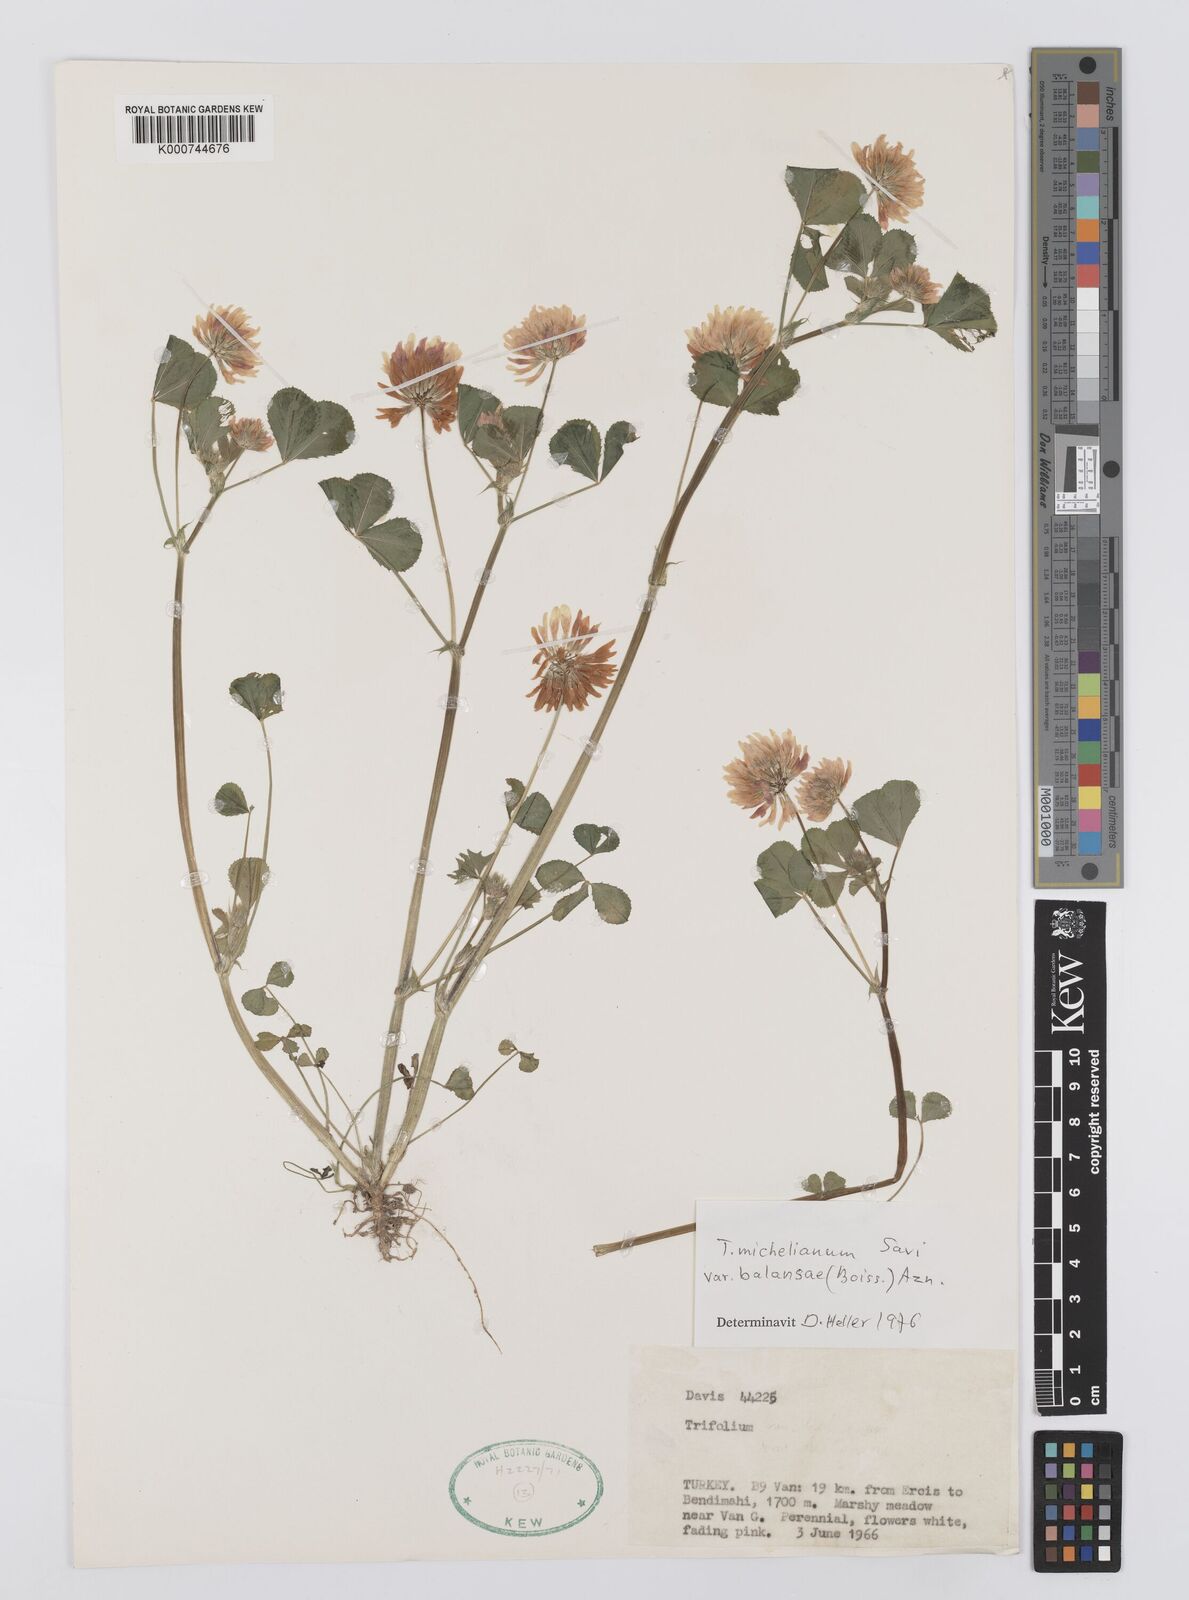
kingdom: Plantae
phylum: Tracheophyta
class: Magnoliopsida
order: Fabales
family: Fabaceae
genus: Trifolium
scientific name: Trifolium michelianum
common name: Bigflower clover
